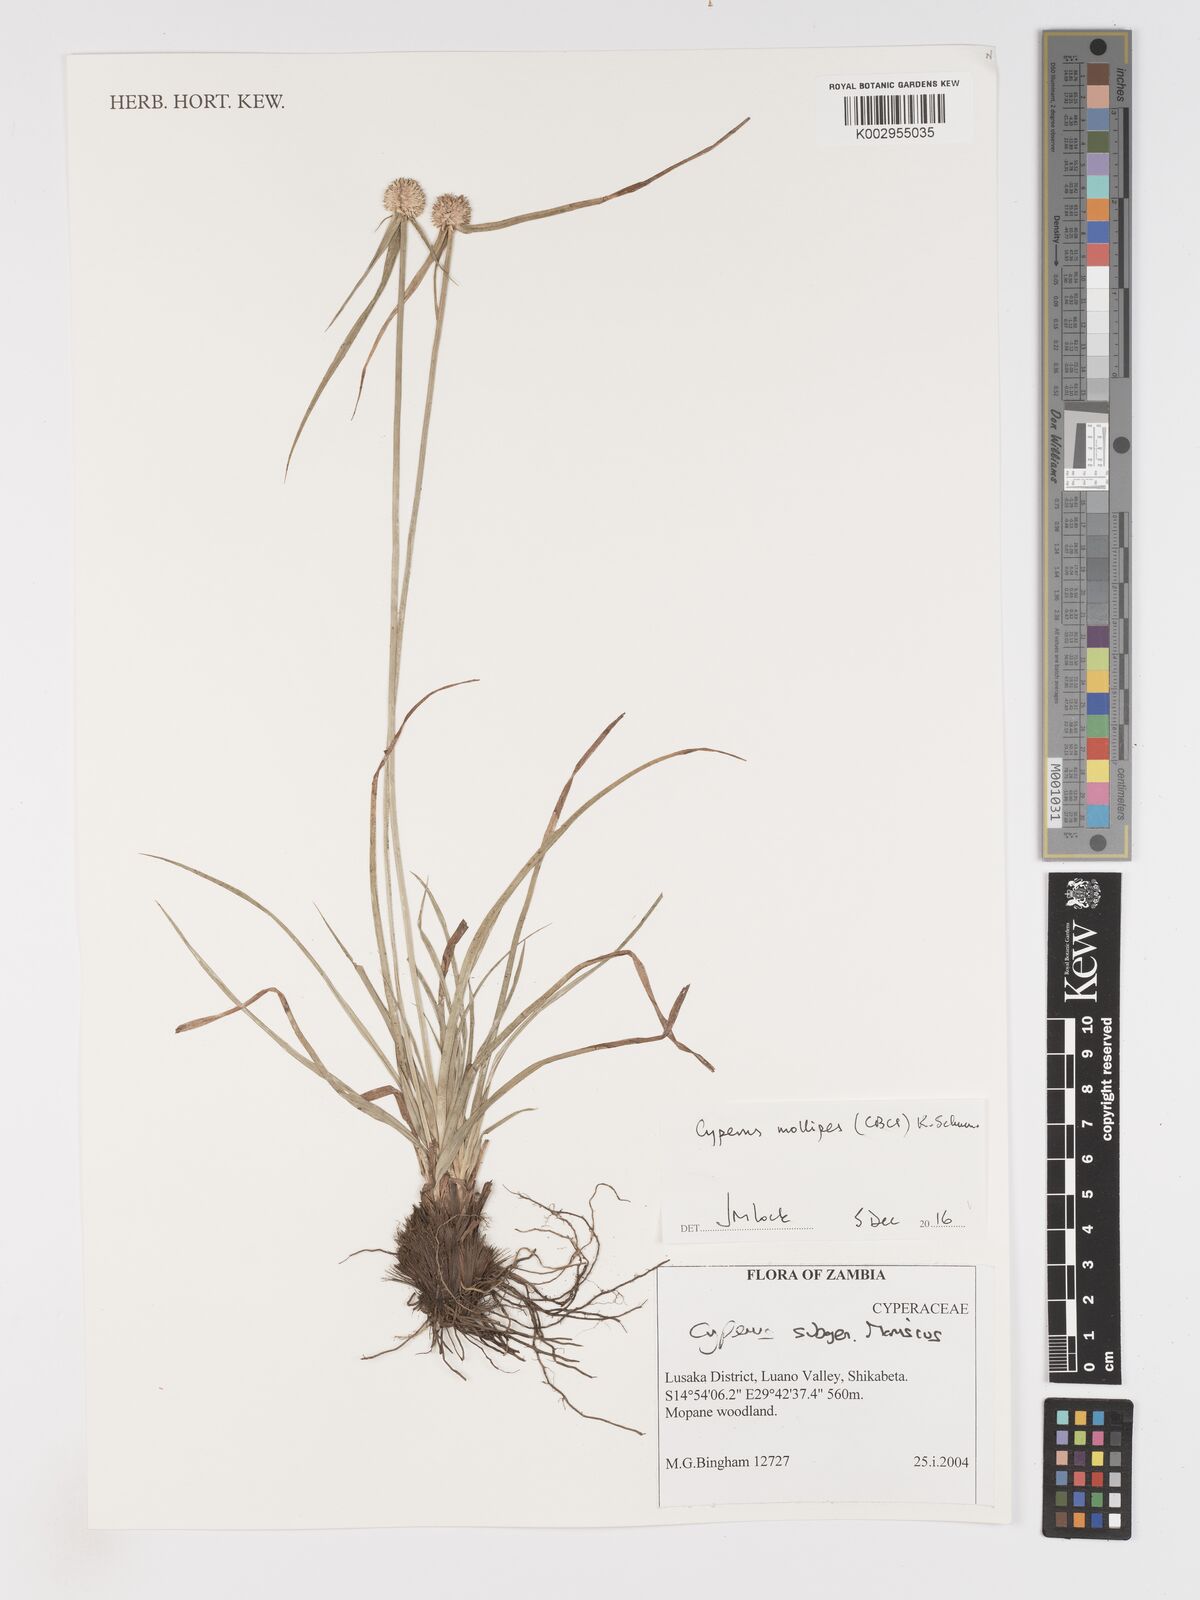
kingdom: Plantae
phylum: Tracheophyta
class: Liliopsida
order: Poales
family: Cyperaceae
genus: Cyperus
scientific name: Cyperus mollipes
